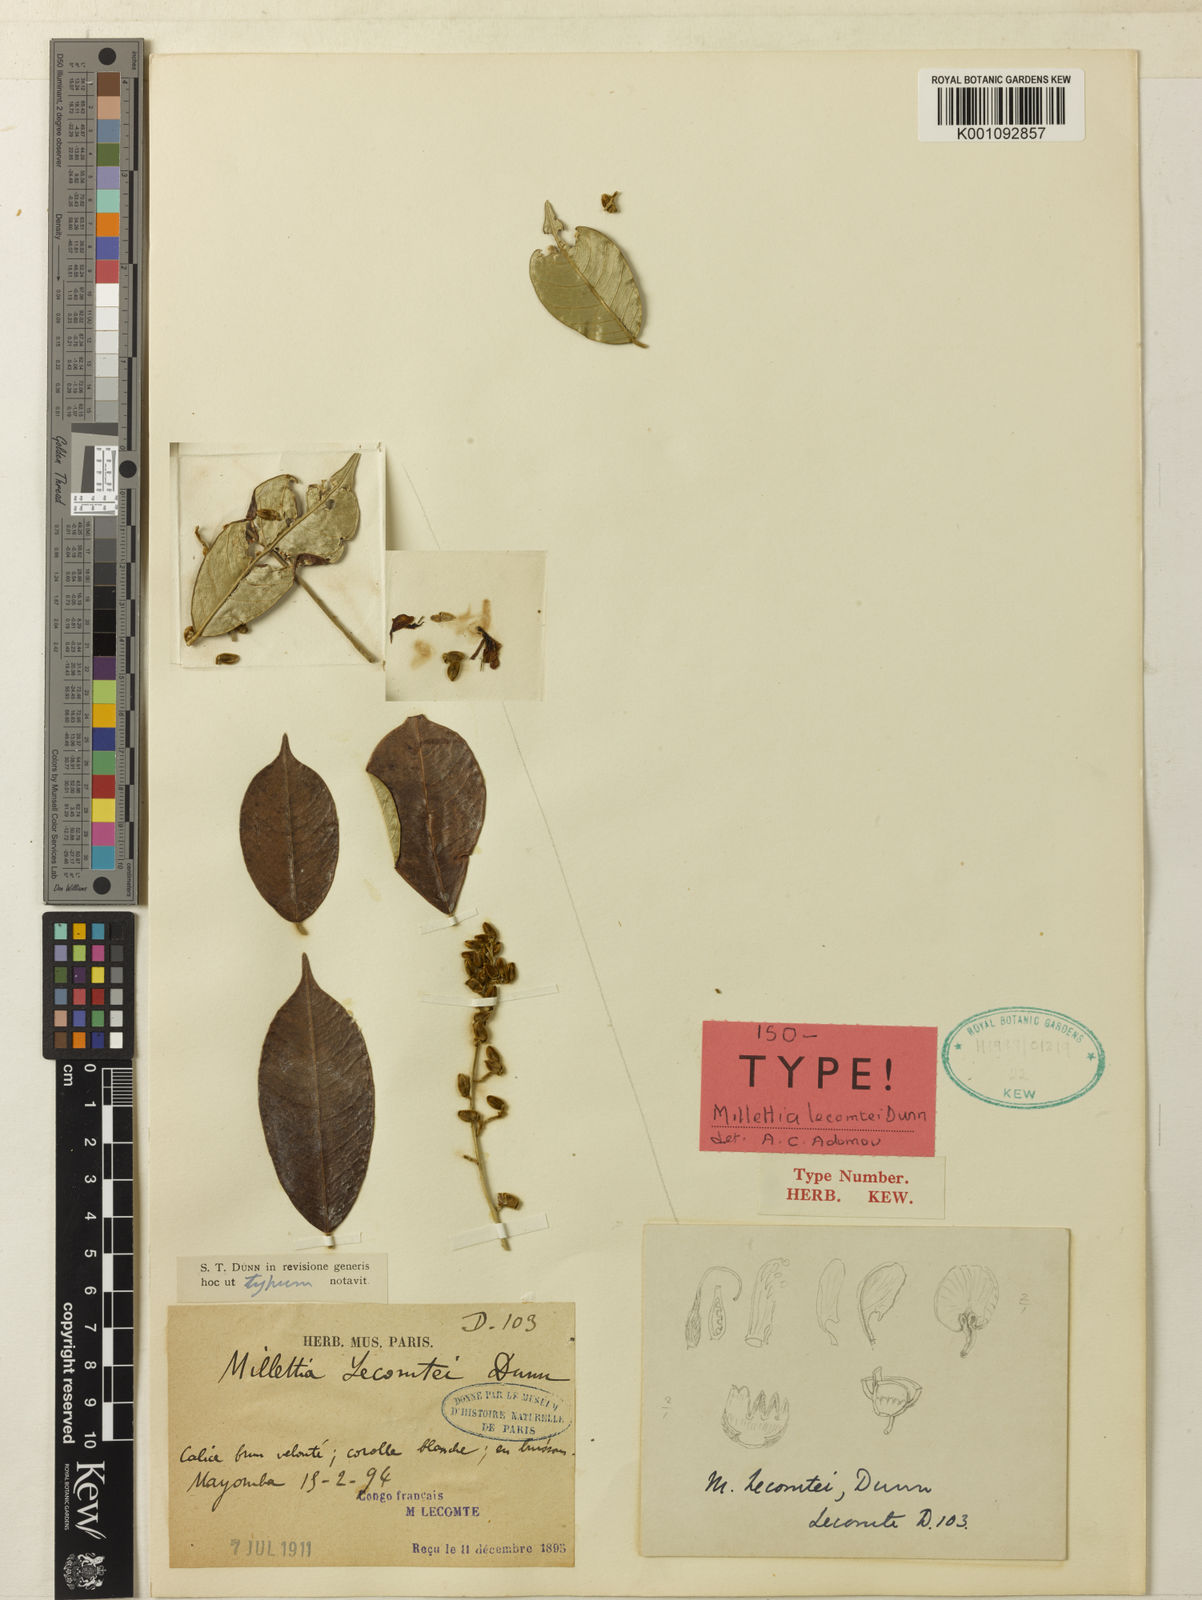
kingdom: Plantae
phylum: Tracheophyta
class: Magnoliopsida
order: Fabales
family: Fabaceae
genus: Millettia
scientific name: Millettia lecomtei
